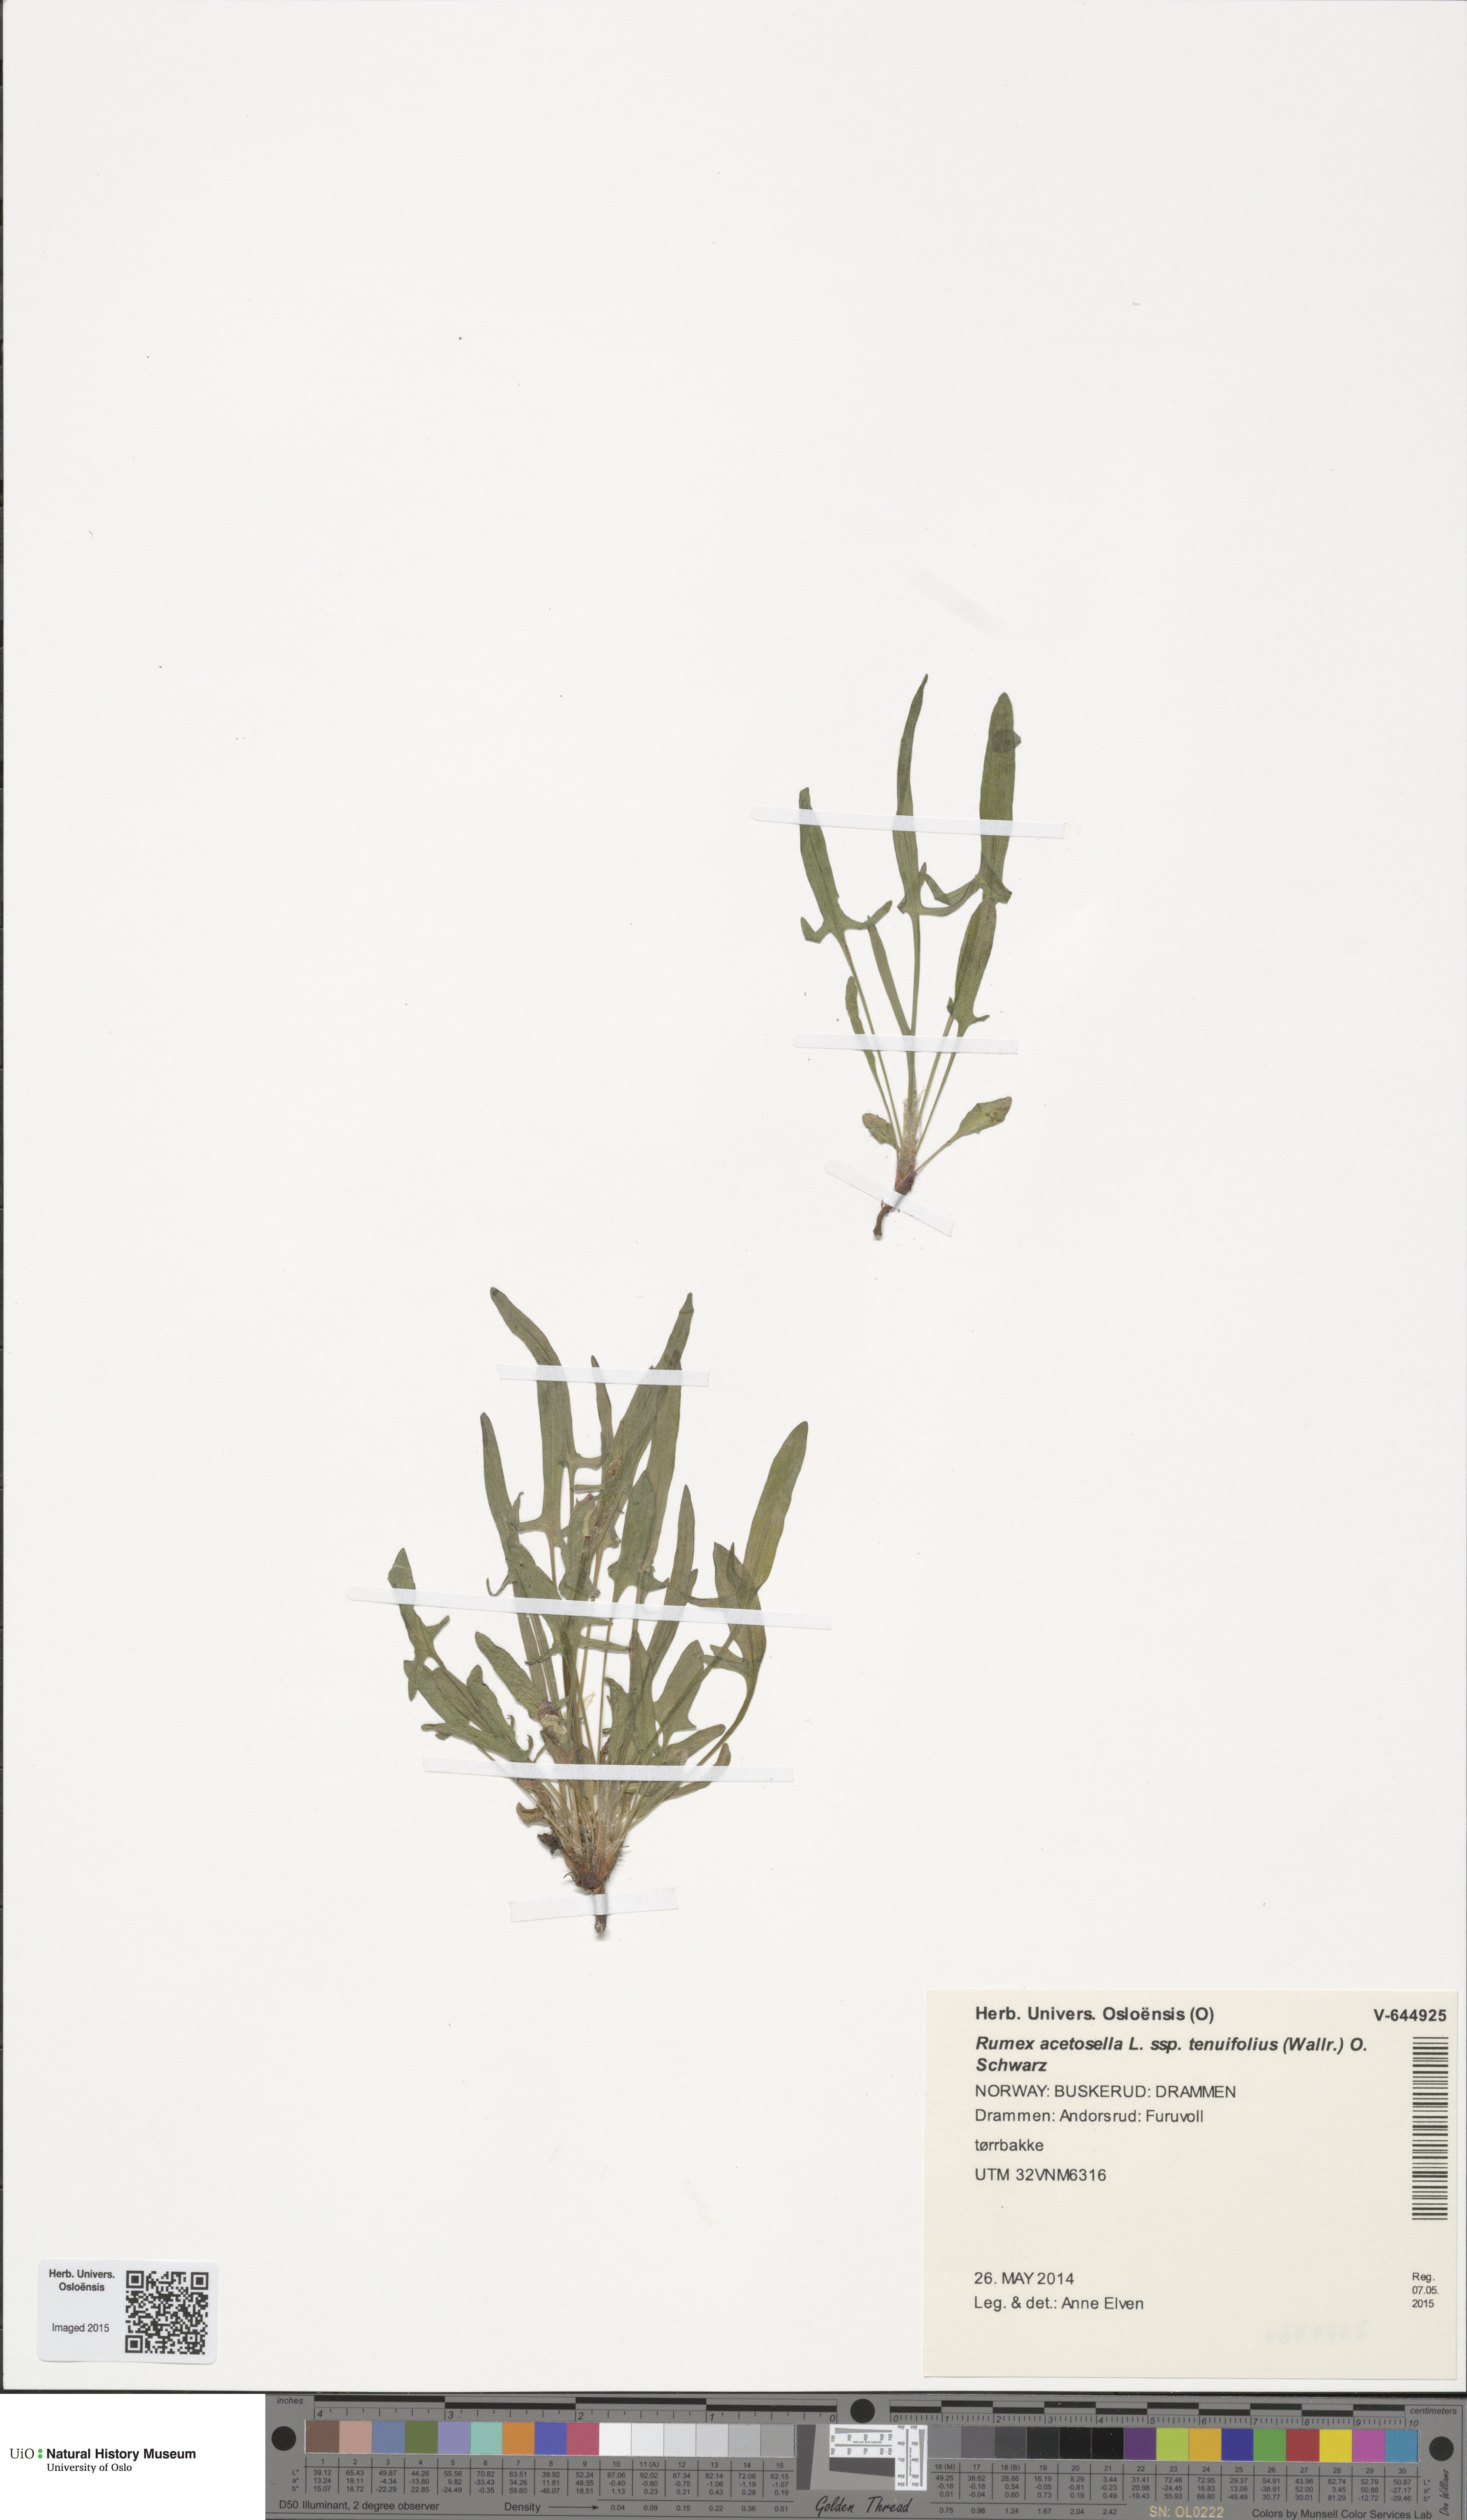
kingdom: Plantae
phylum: Tracheophyta
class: Magnoliopsida
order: Caryophyllales
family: Polygonaceae
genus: Rumex
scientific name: Rumex acetosella
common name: Common sheep sorrel
